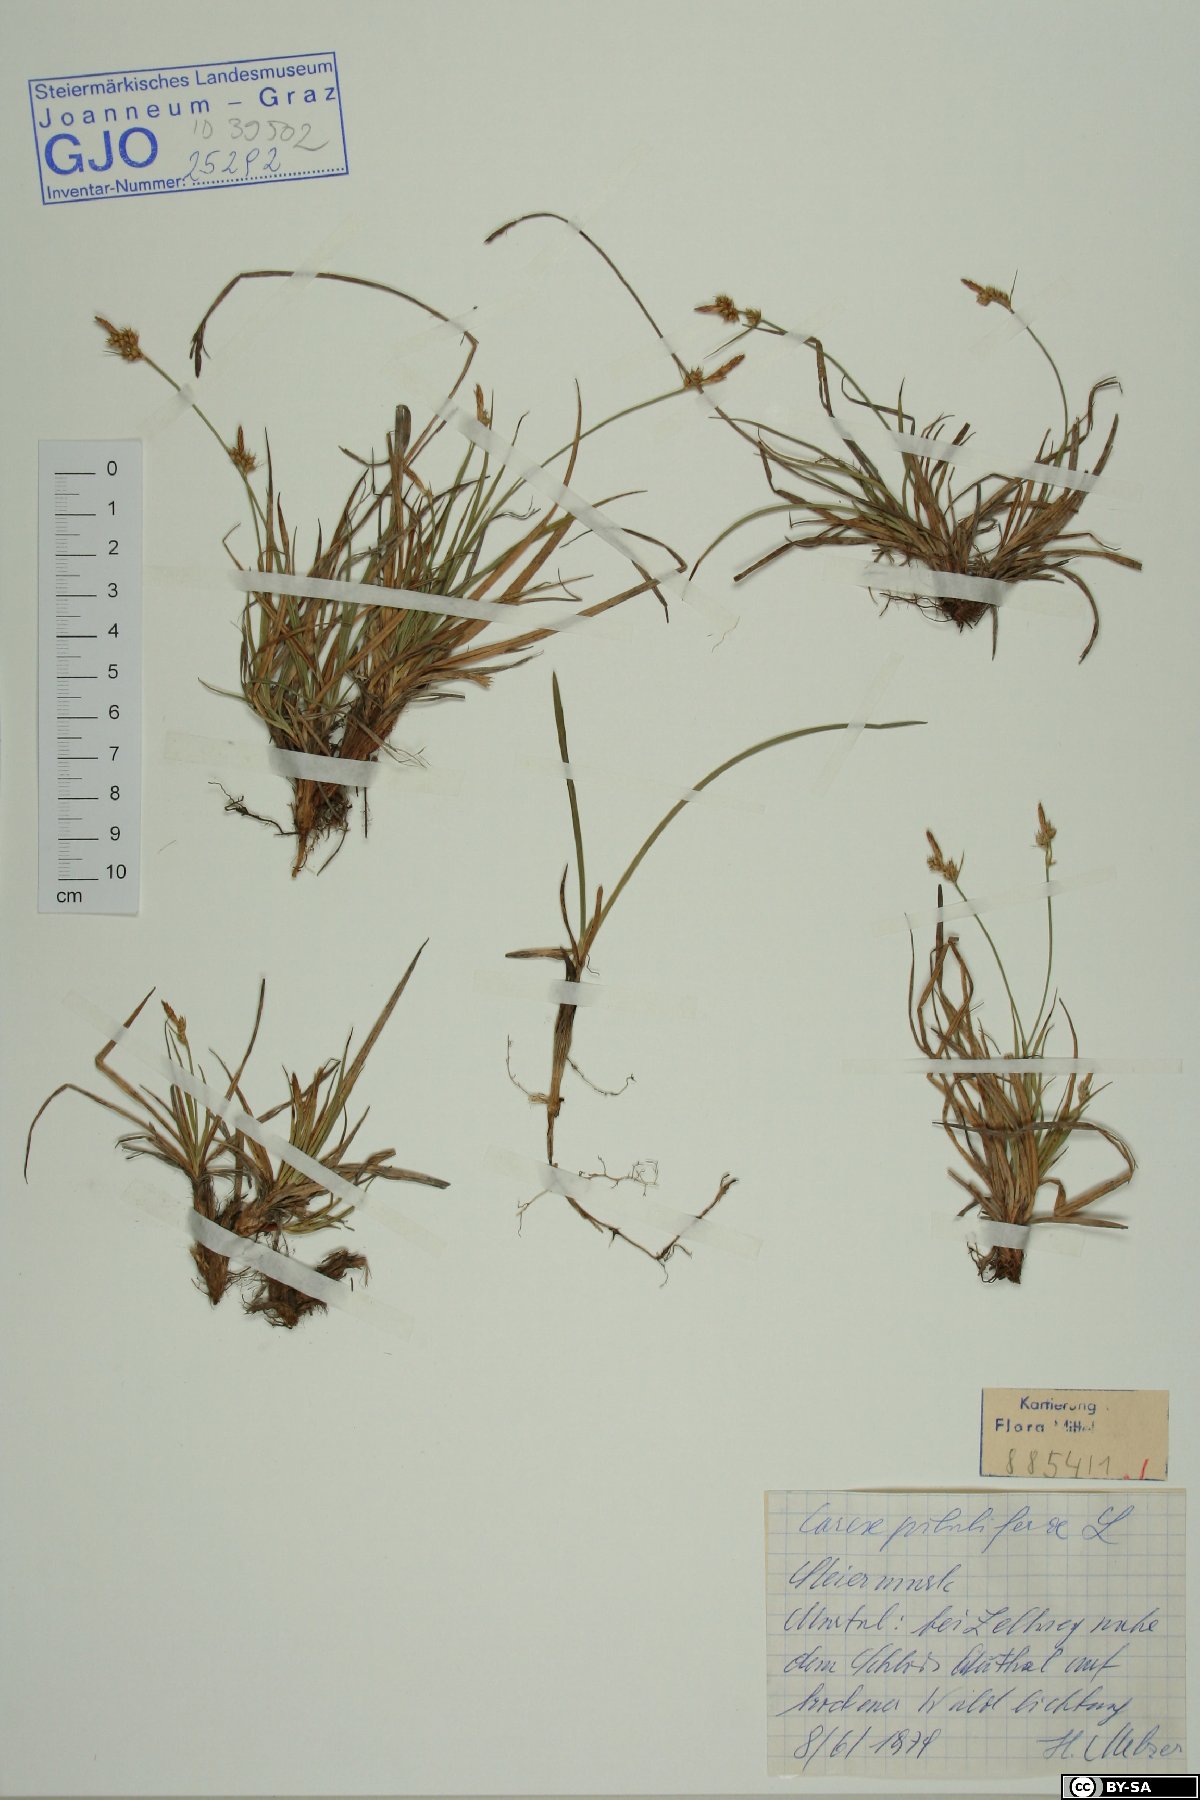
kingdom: Plantae
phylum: Tracheophyta
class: Liliopsida
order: Poales
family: Cyperaceae
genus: Carex
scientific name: Carex pilulifera
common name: Pill sedge
